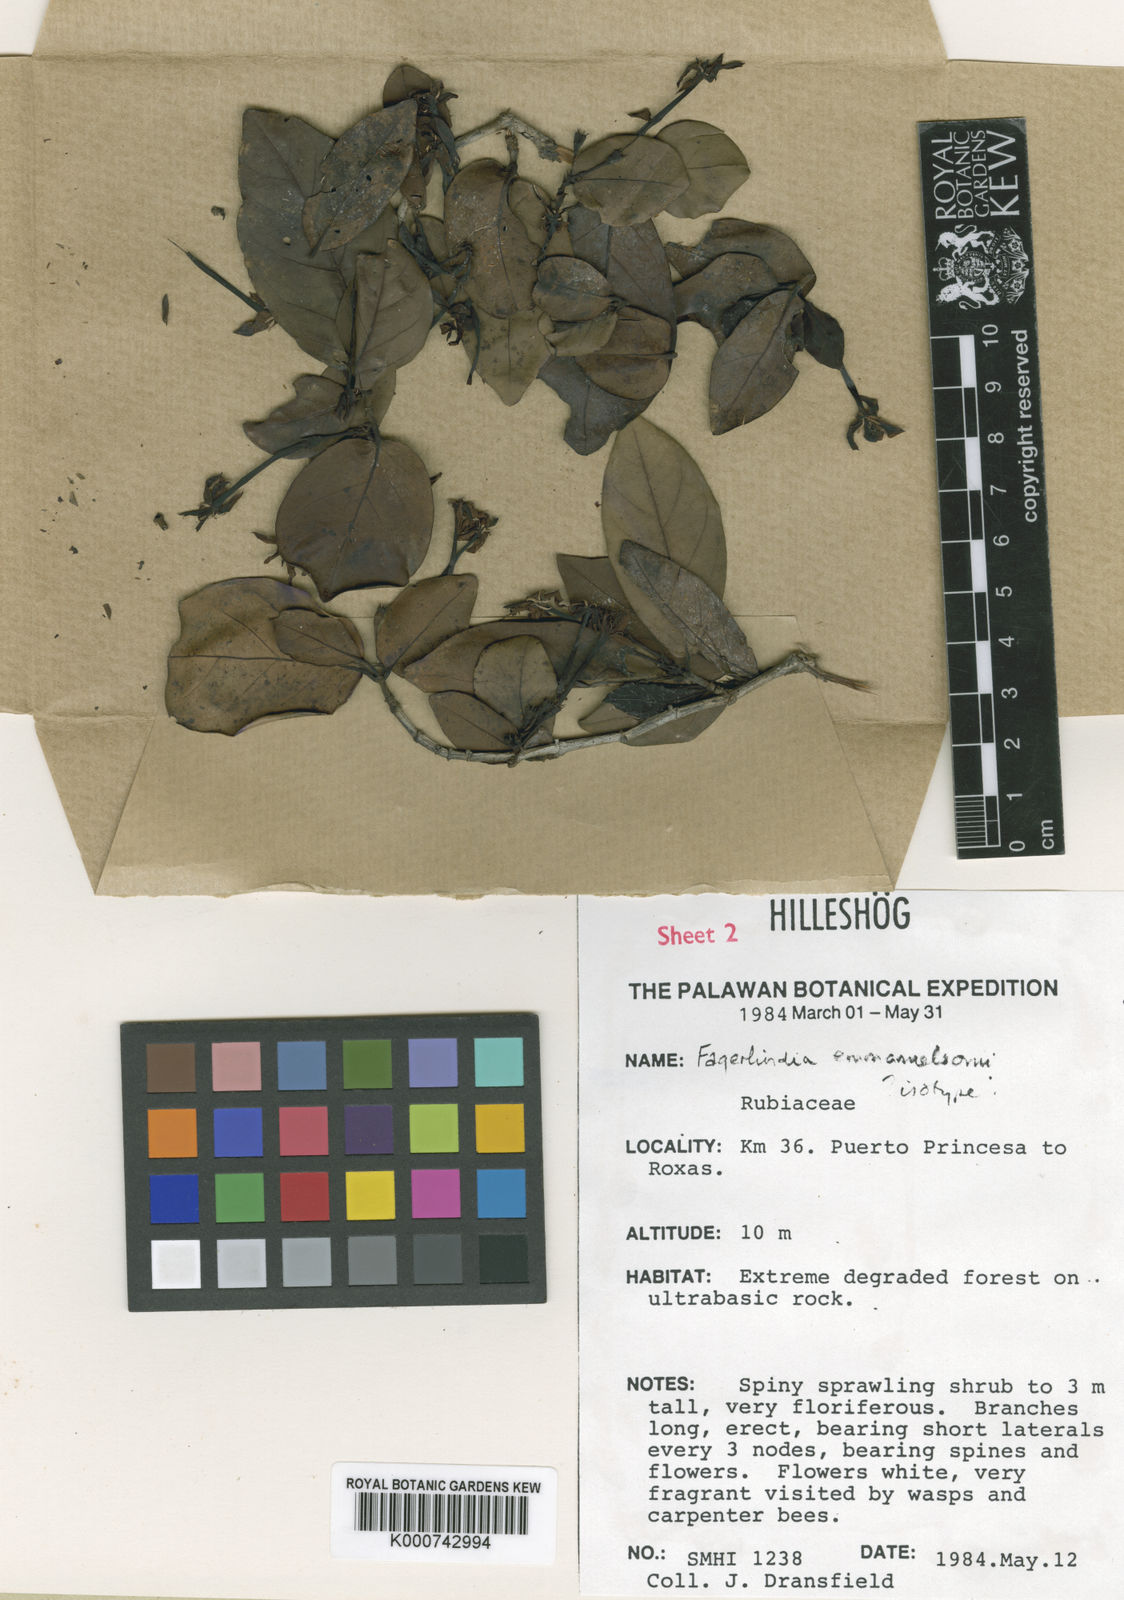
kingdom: Plantae
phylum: Tracheophyta
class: Magnoliopsida
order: Gentianales
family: Rubiaceae
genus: Benkara
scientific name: Benkara emanuelssoniana
